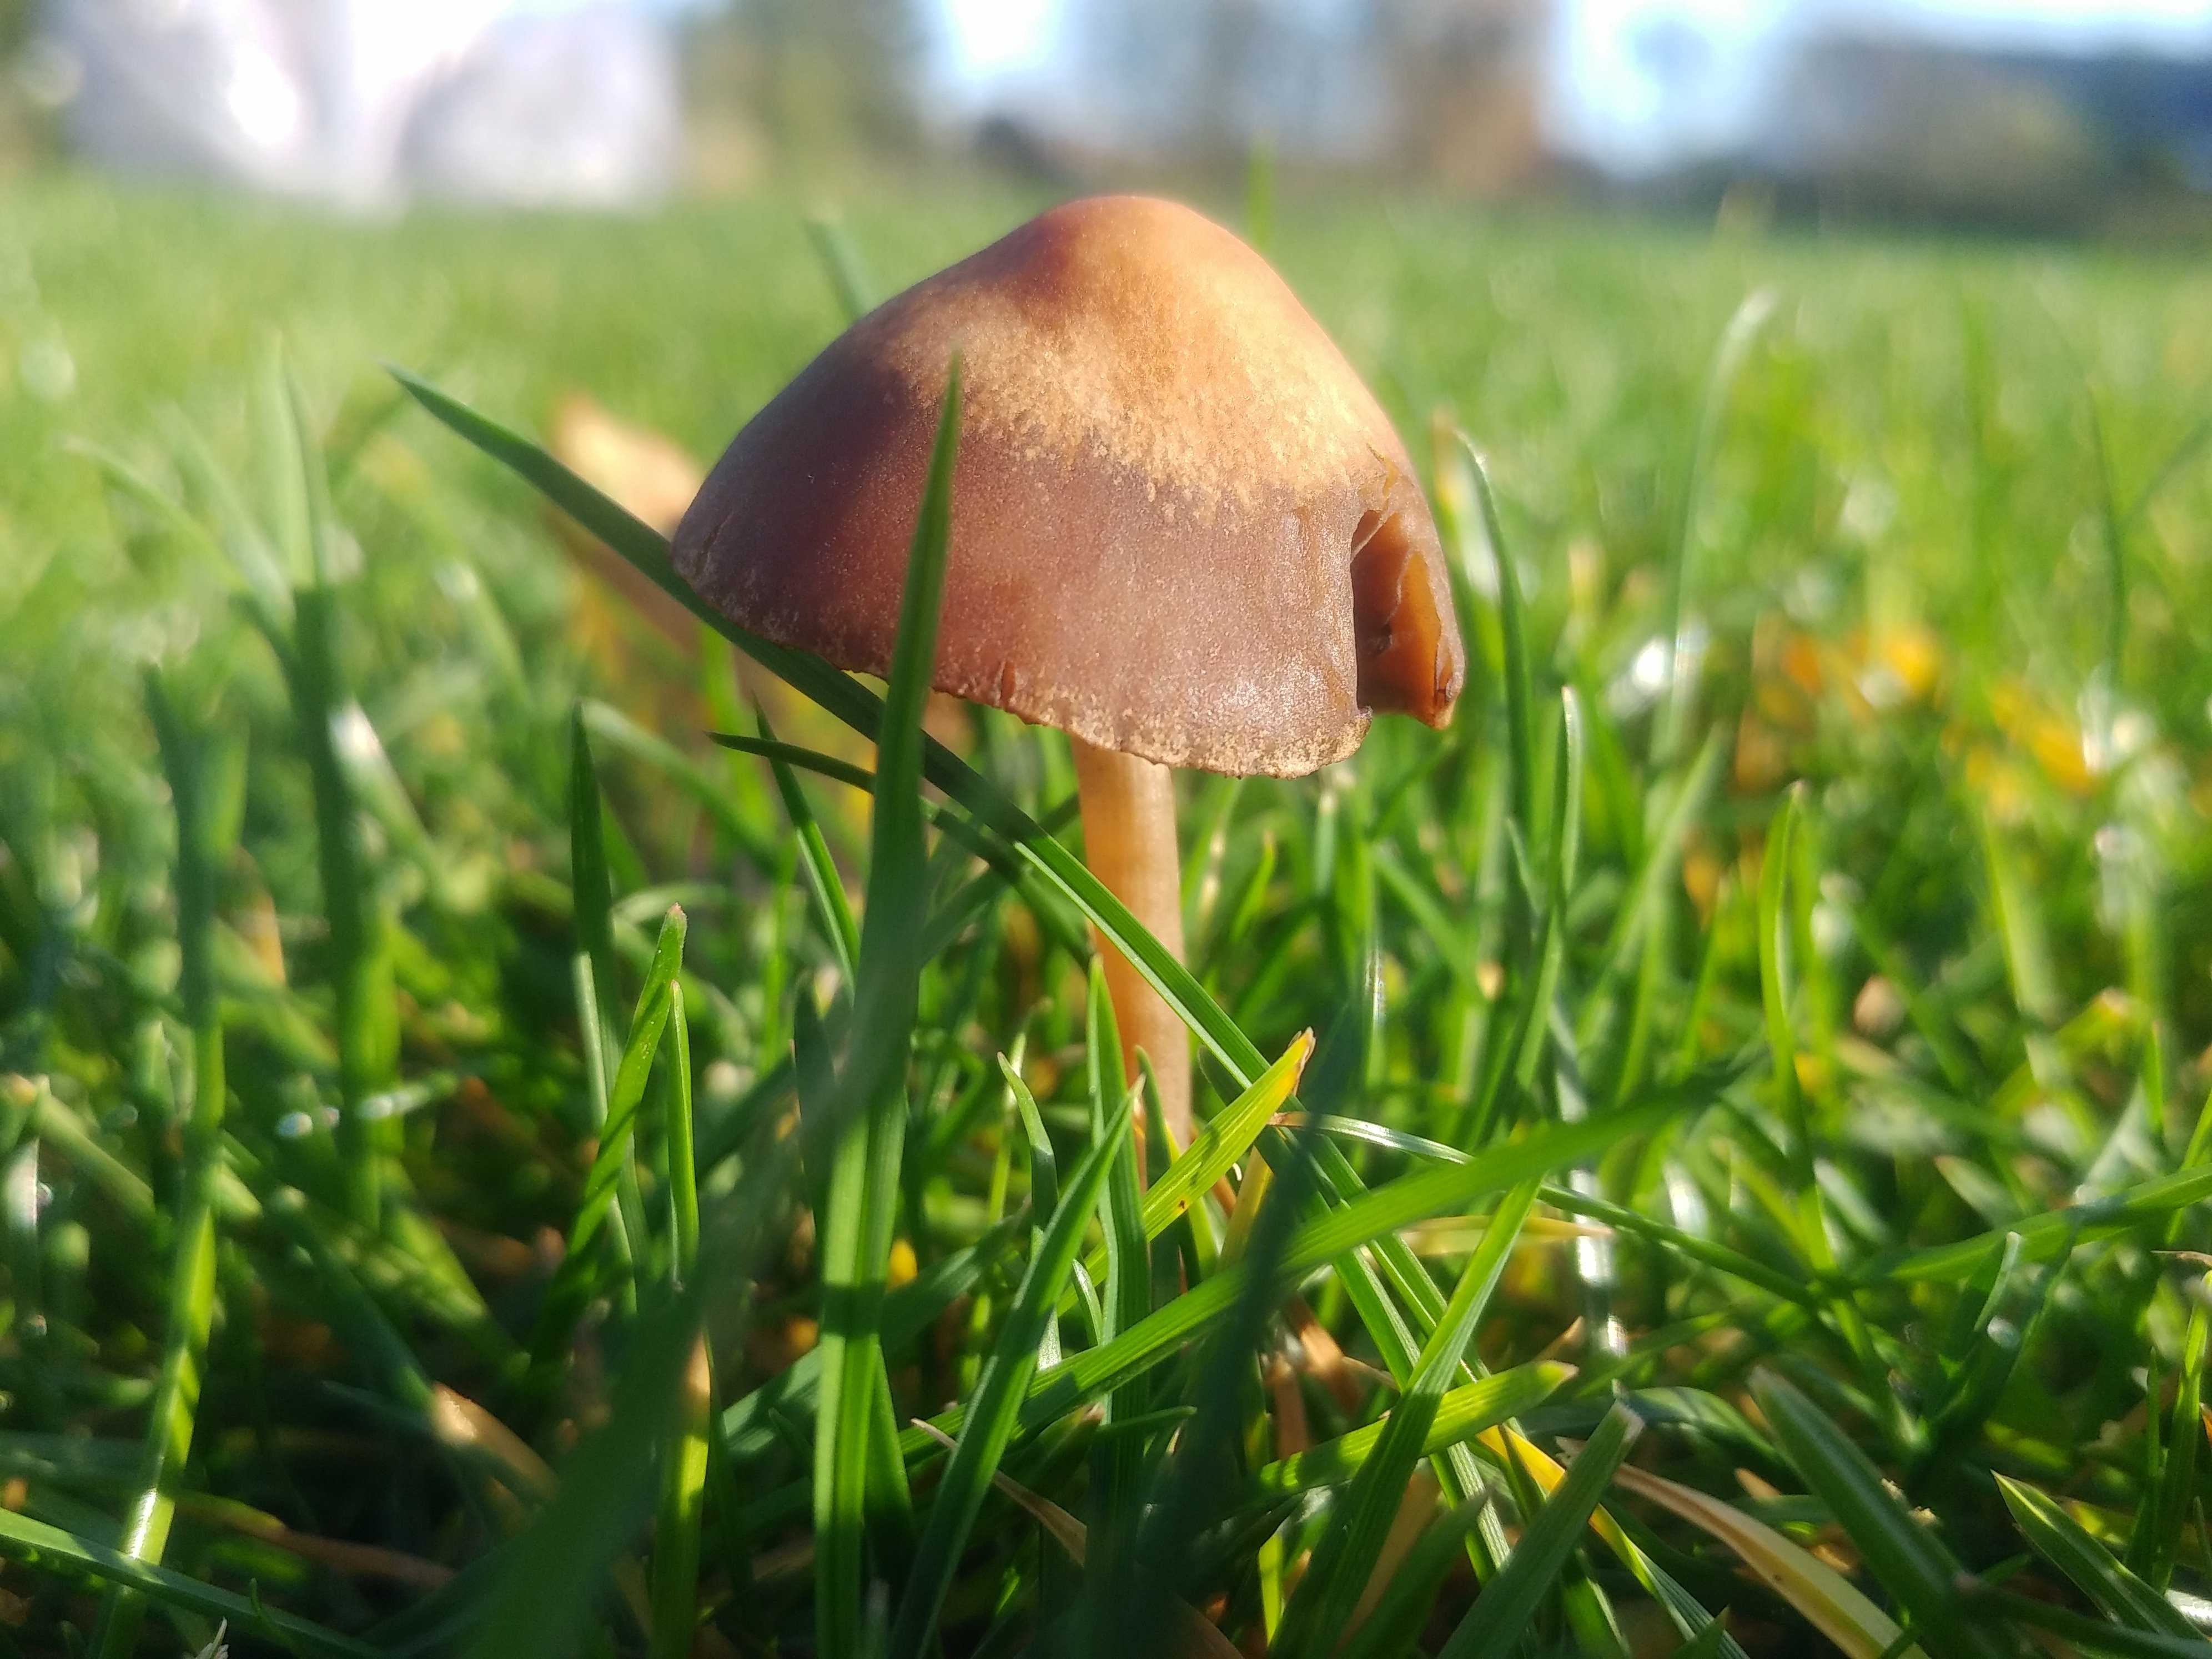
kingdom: Fungi
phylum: Basidiomycota
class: Agaricomycetes
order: Agaricales
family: Bolbitiaceae
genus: Panaeolina
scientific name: Panaeolina foenisecii
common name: høslætsvamp
